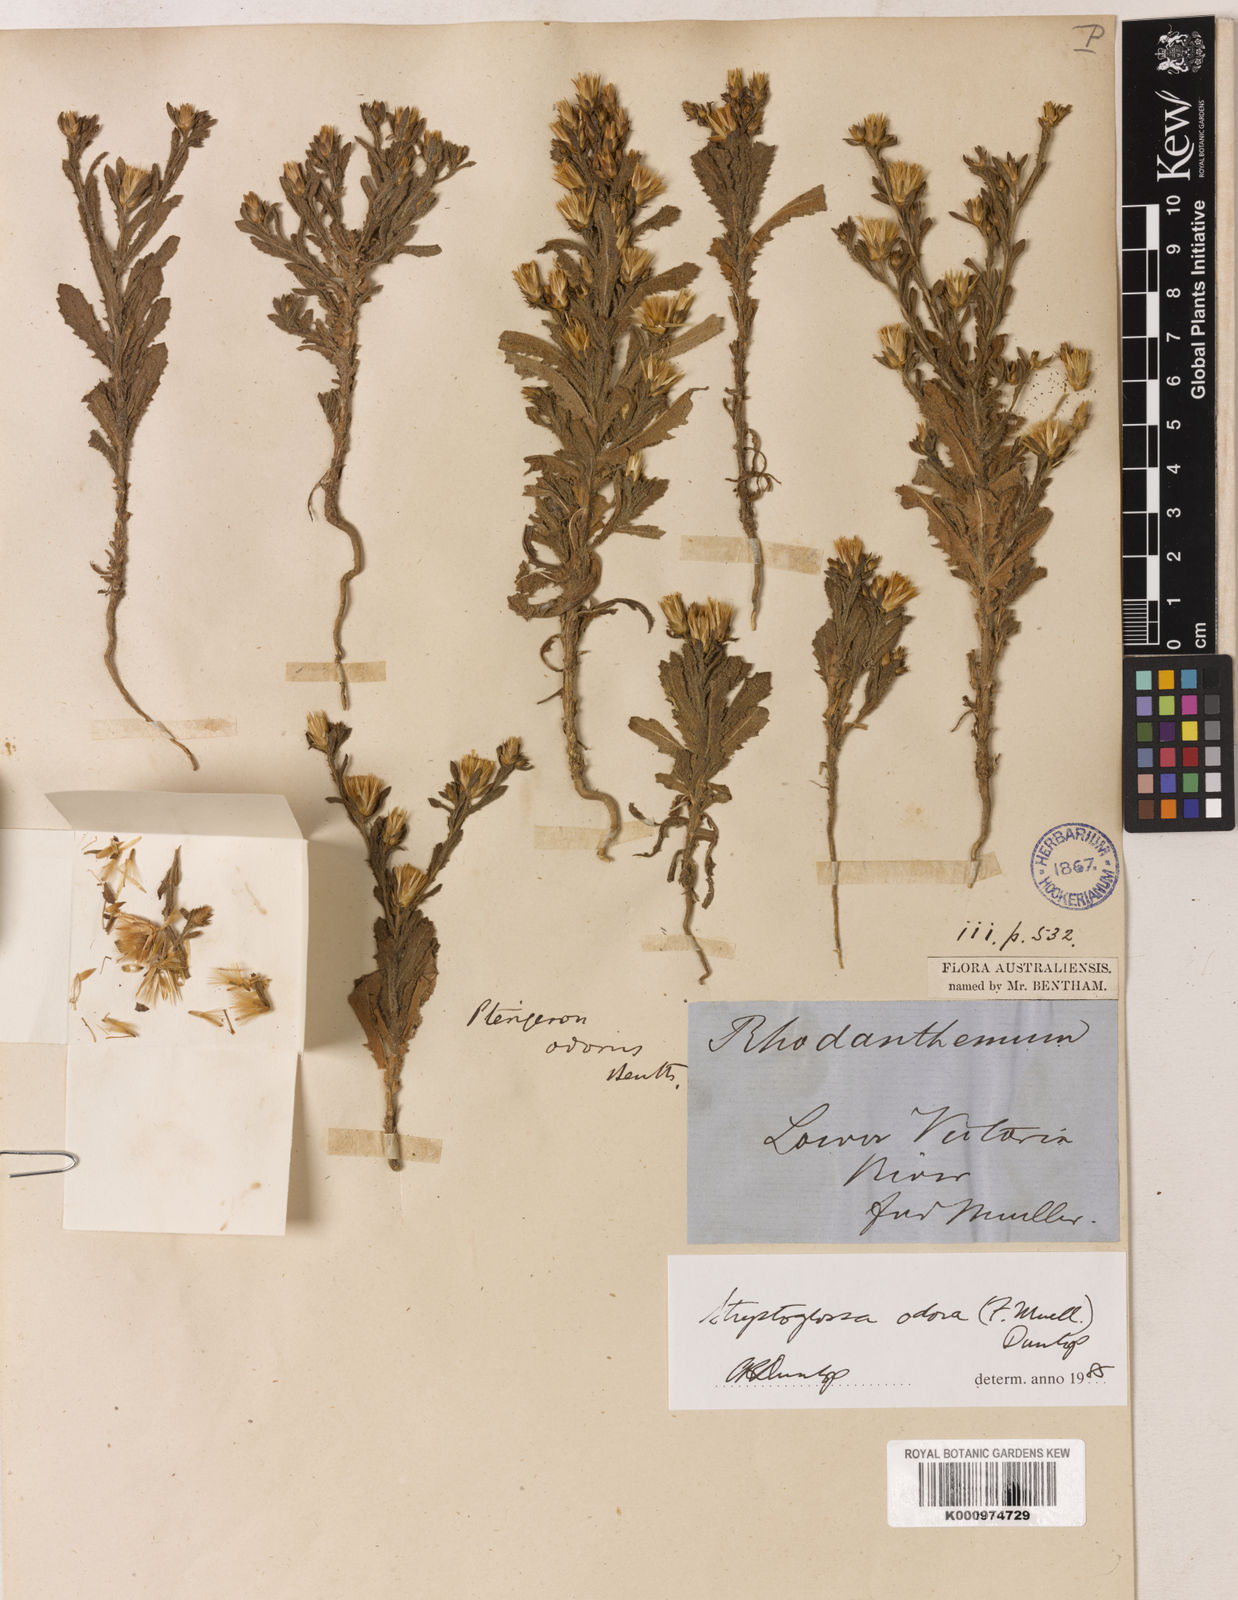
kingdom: Plantae
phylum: Tracheophyta
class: Magnoliopsida
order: Asterales
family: Asteraceae
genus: Streptoglossa
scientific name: Streptoglossa odora
